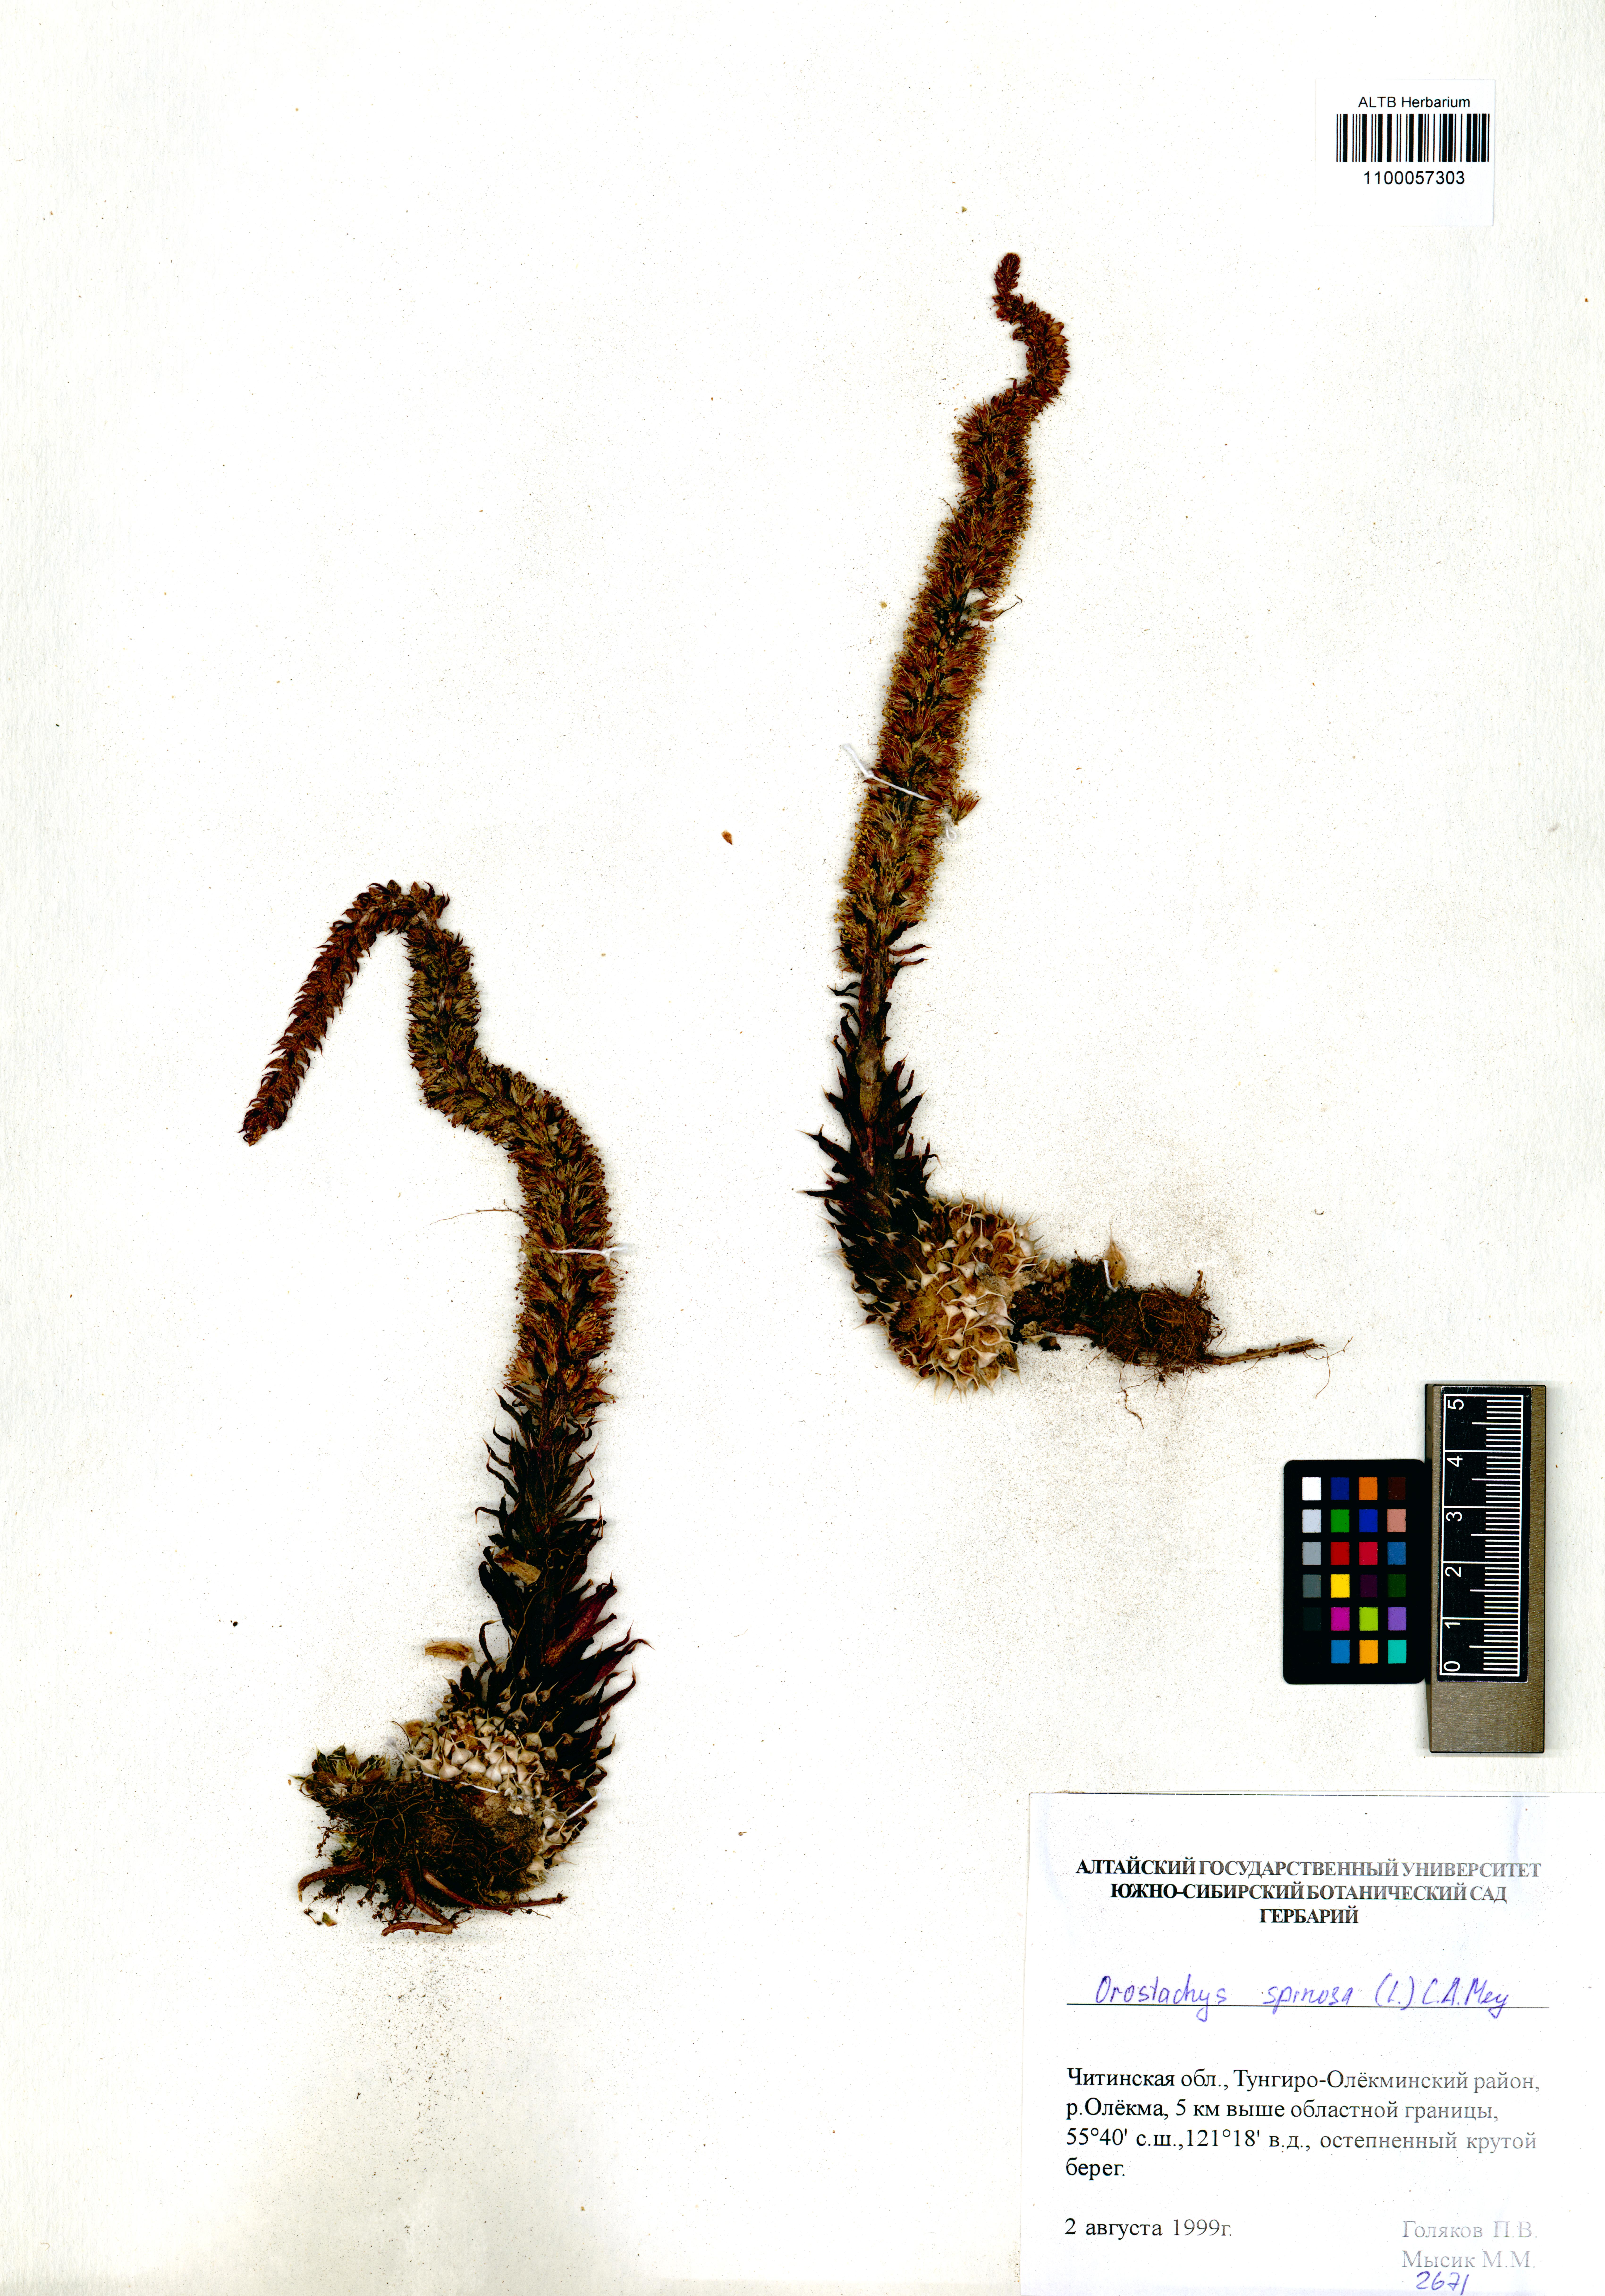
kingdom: Plantae
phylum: Tracheophyta
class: Magnoliopsida
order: Saxifragales
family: Crassulaceae
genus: Orostachys
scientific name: Orostachys spinosa
